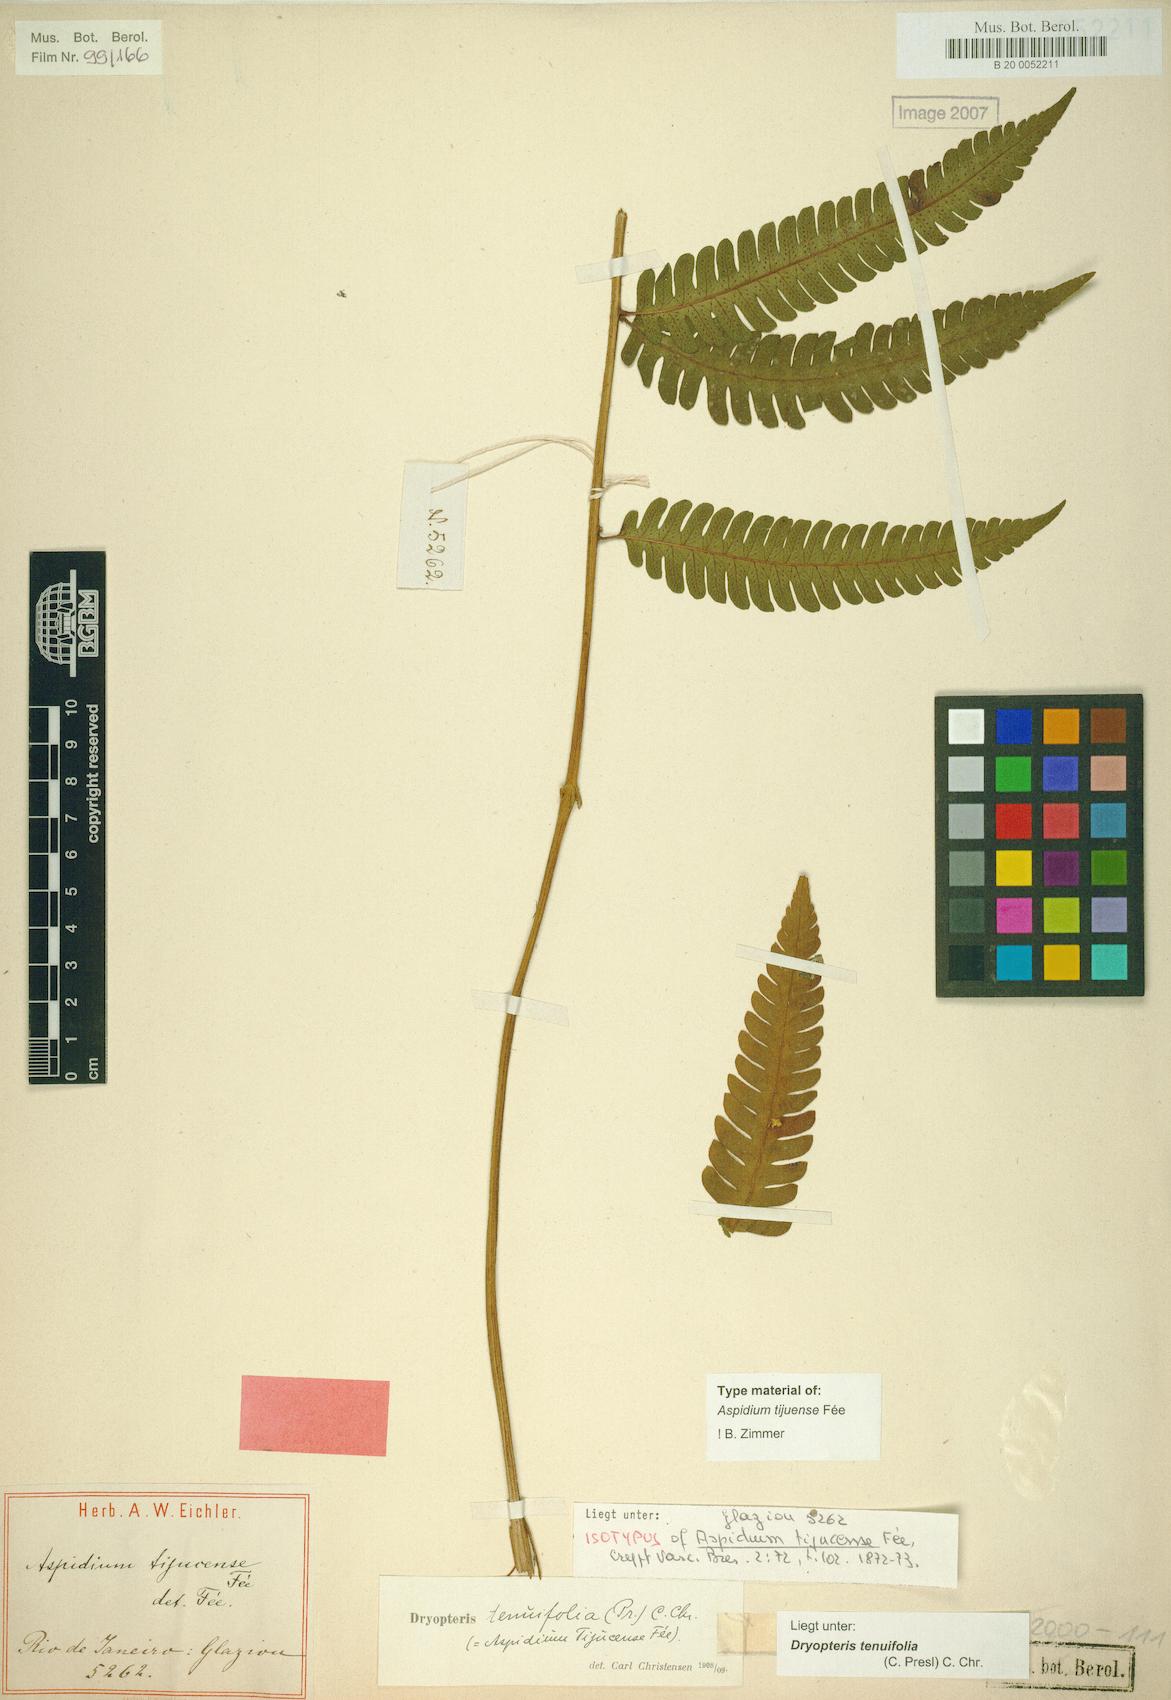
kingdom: Plantae
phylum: Tracheophyta
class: Polypodiopsida
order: Polypodiales
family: Dryopteridaceae
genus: Ctenitis
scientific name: Ctenitis aspidioides
